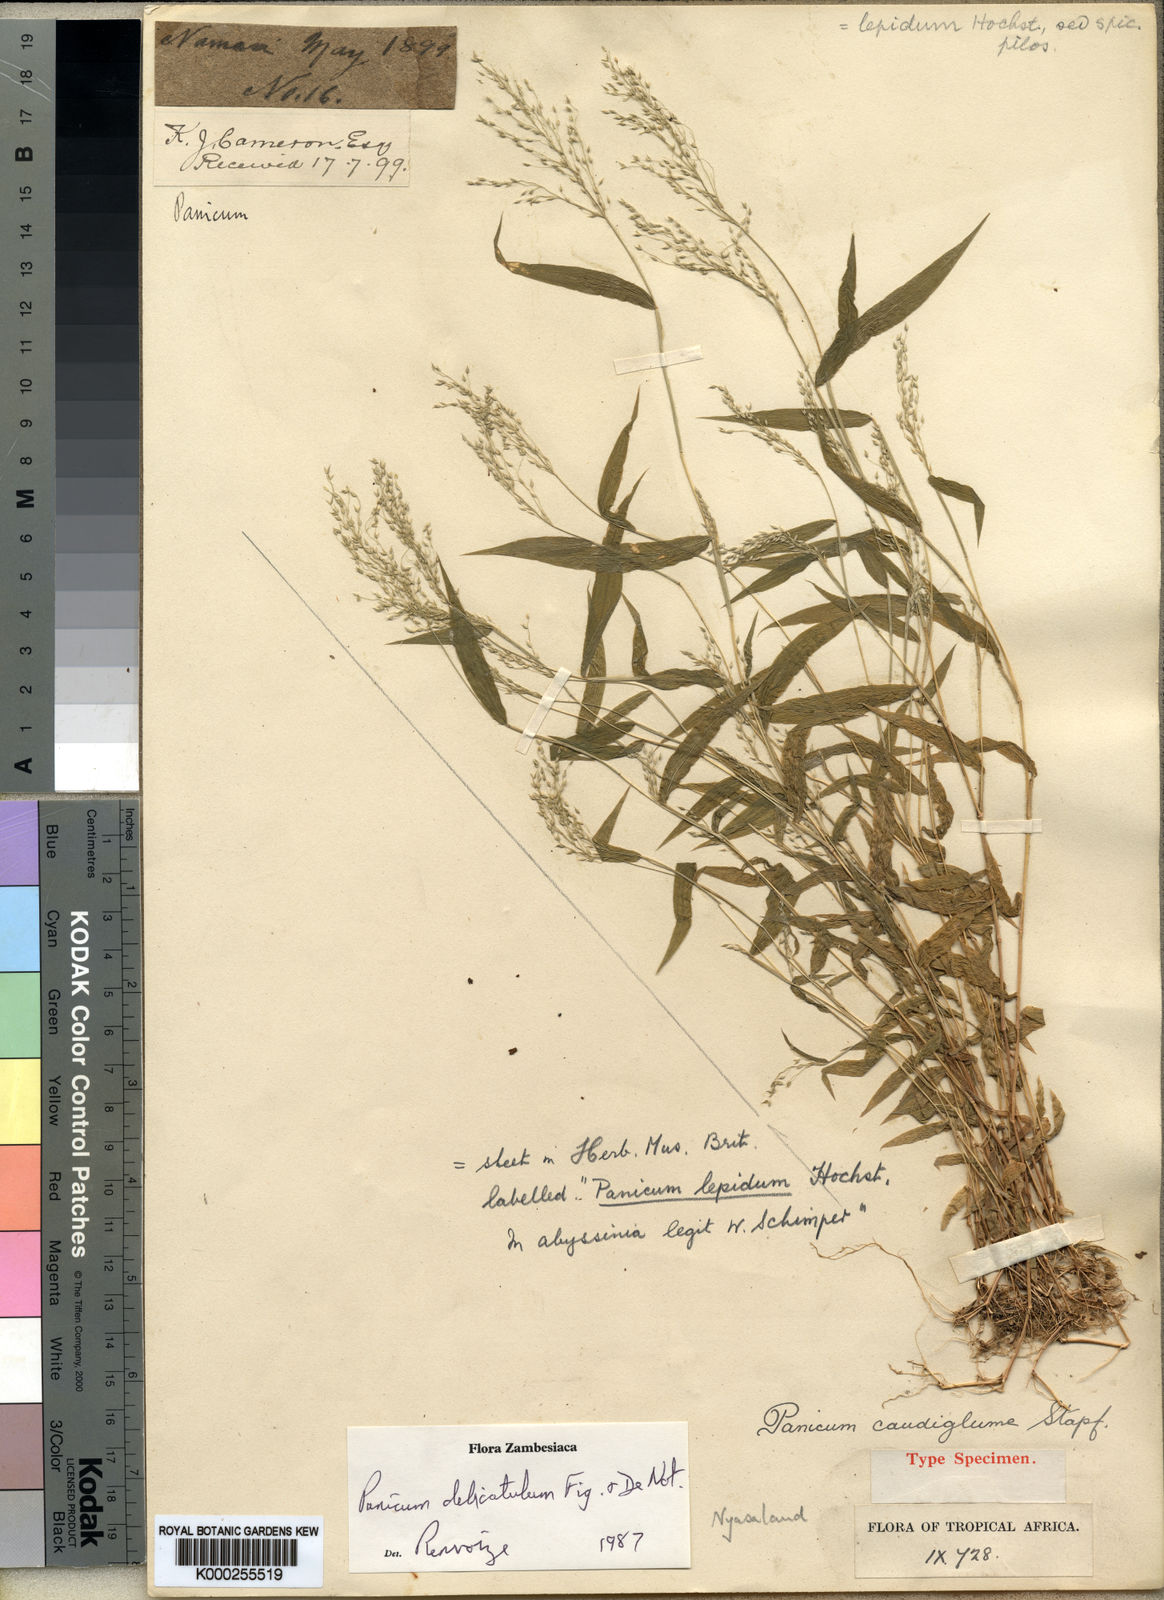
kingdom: Plantae
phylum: Tracheophyta
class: Liliopsida
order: Poales
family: Poaceae
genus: Panicum
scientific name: Panicum delicatulum
